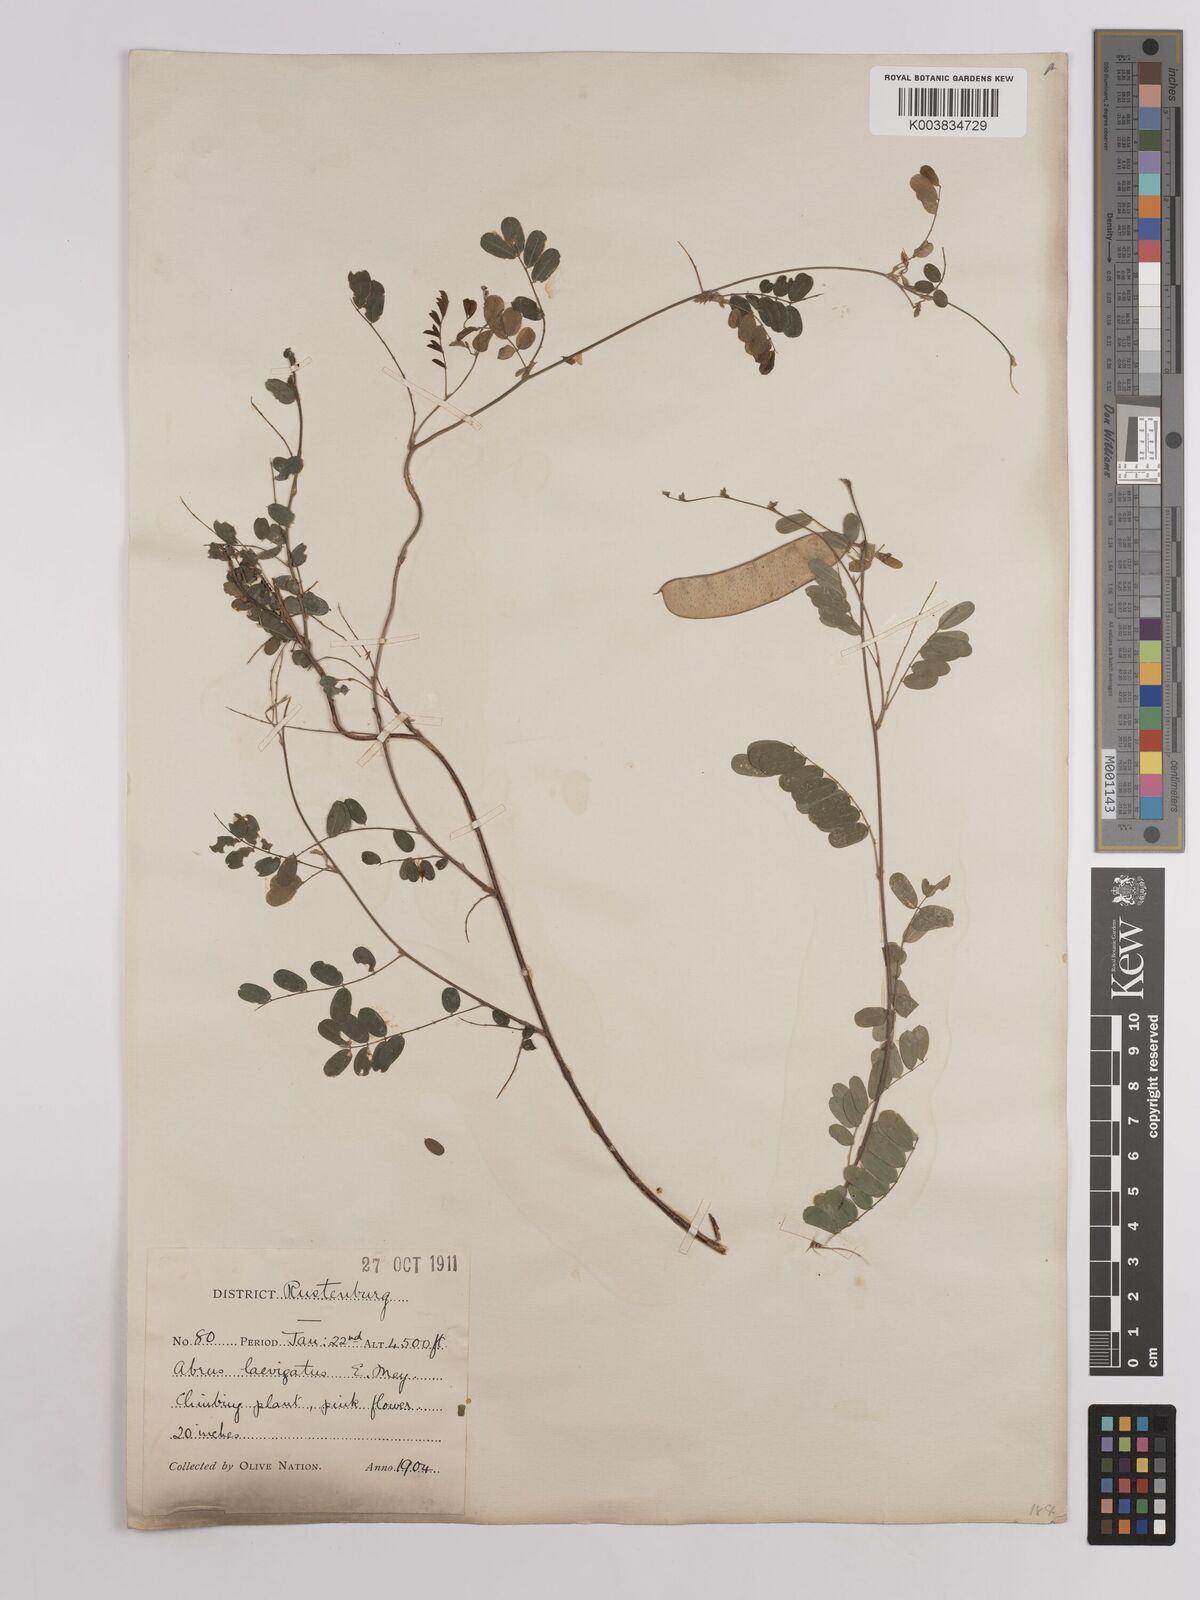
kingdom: Plantae
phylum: Tracheophyta
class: Magnoliopsida
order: Fabales
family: Fabaceae
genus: Abrus
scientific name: Abrus laevigatus
